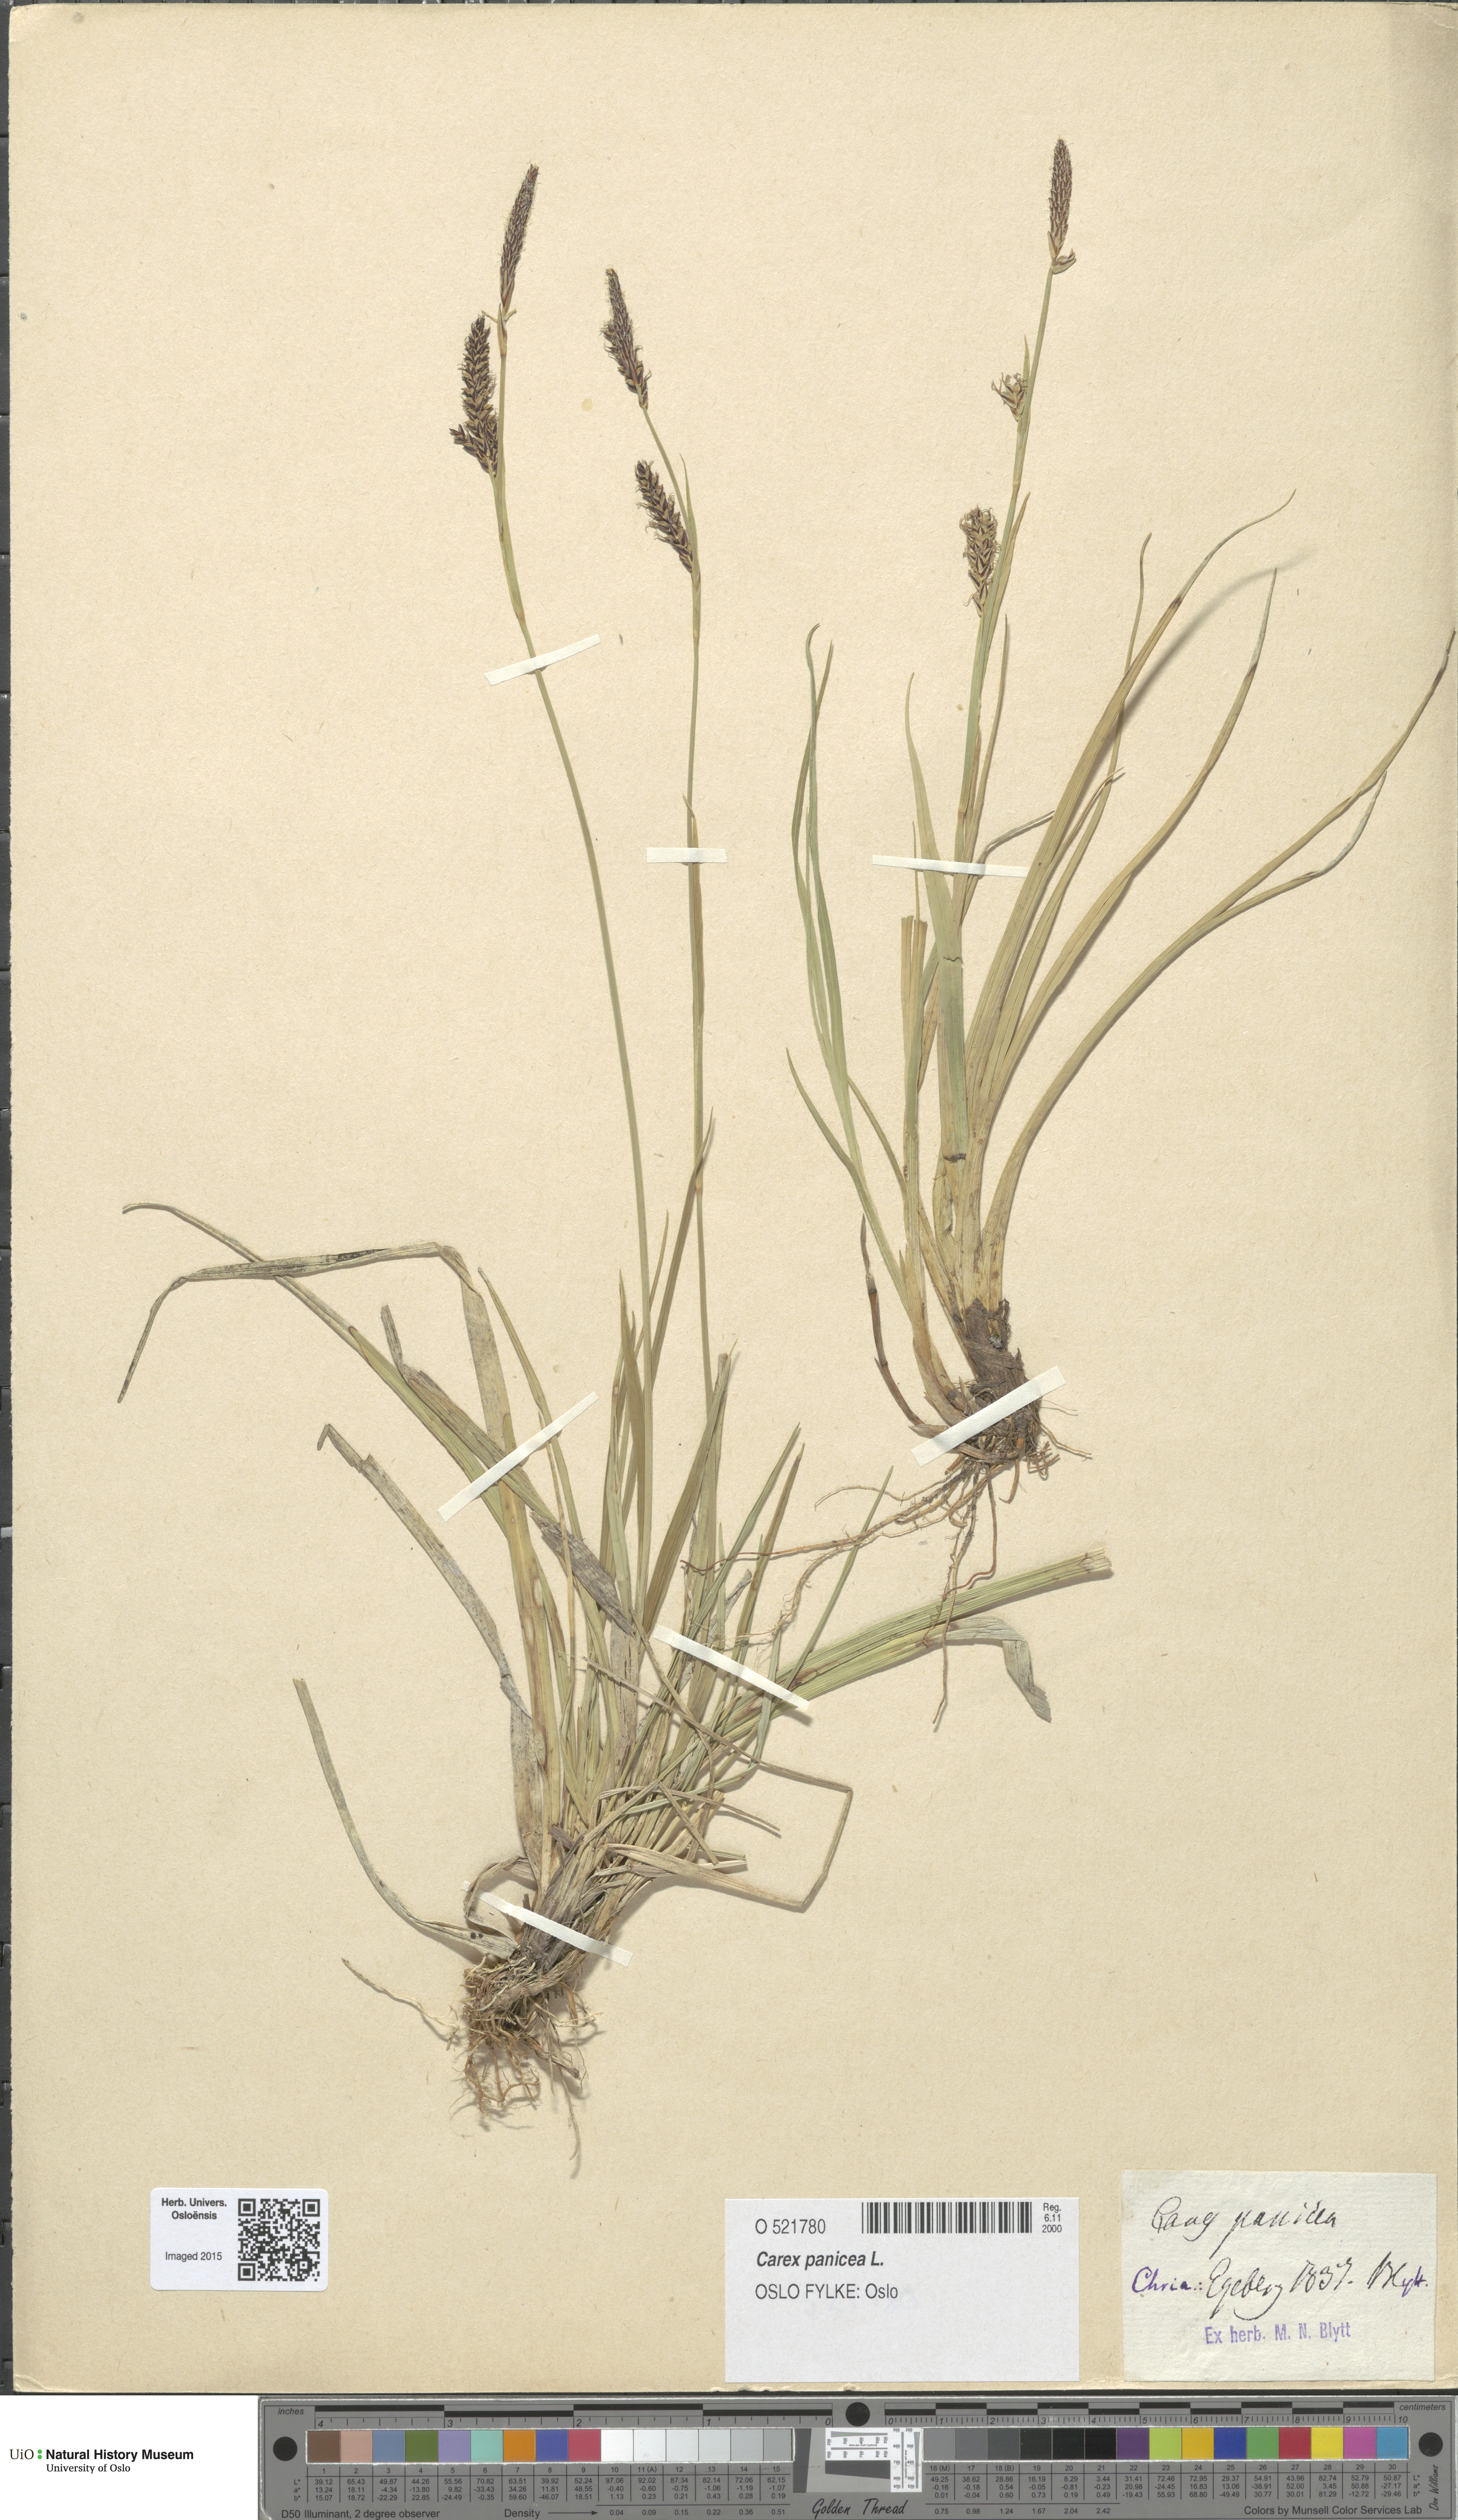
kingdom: Plantae
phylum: Tracheophyta
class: Liliopsida
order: Poales
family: Cyperaceae
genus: Carex
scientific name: Carex panicea
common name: Carnation sedge
